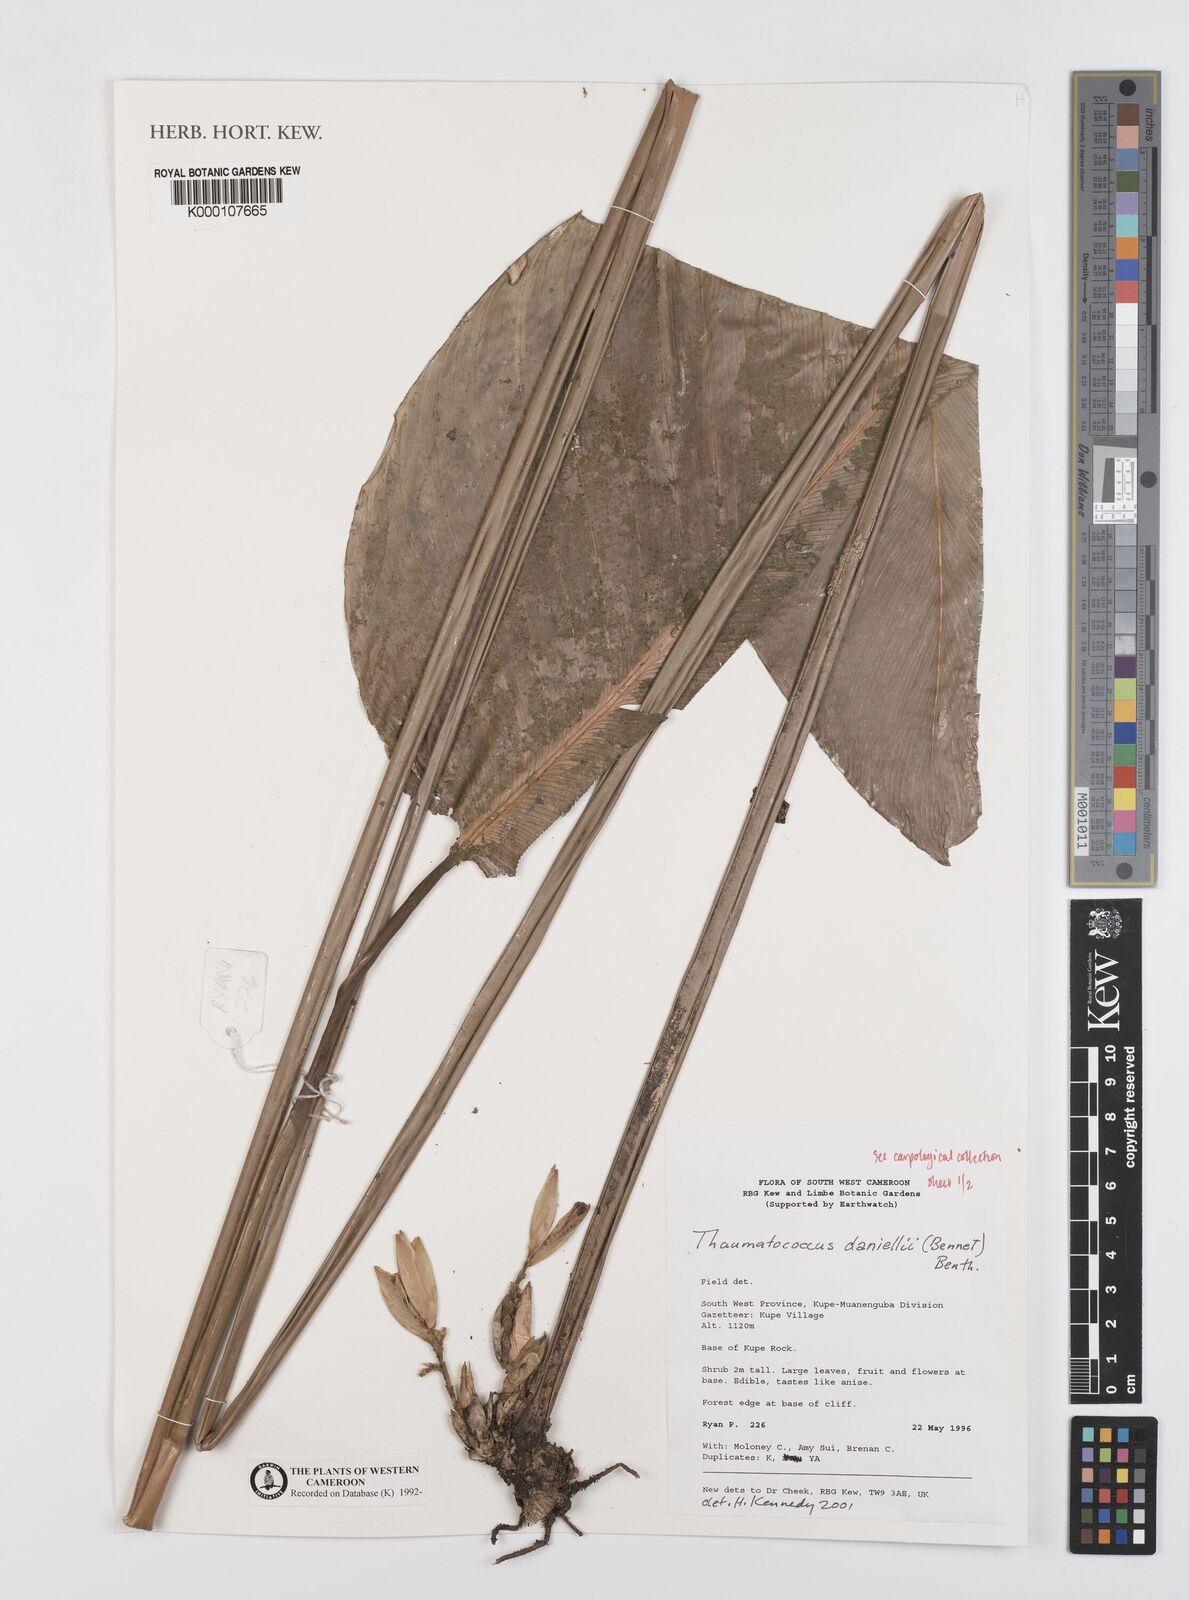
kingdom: Plantae
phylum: Tracheophyta
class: Liliopsida
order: Zingiberales
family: Marantaceae
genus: Thaumatococcus
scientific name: Thaumatococcus
